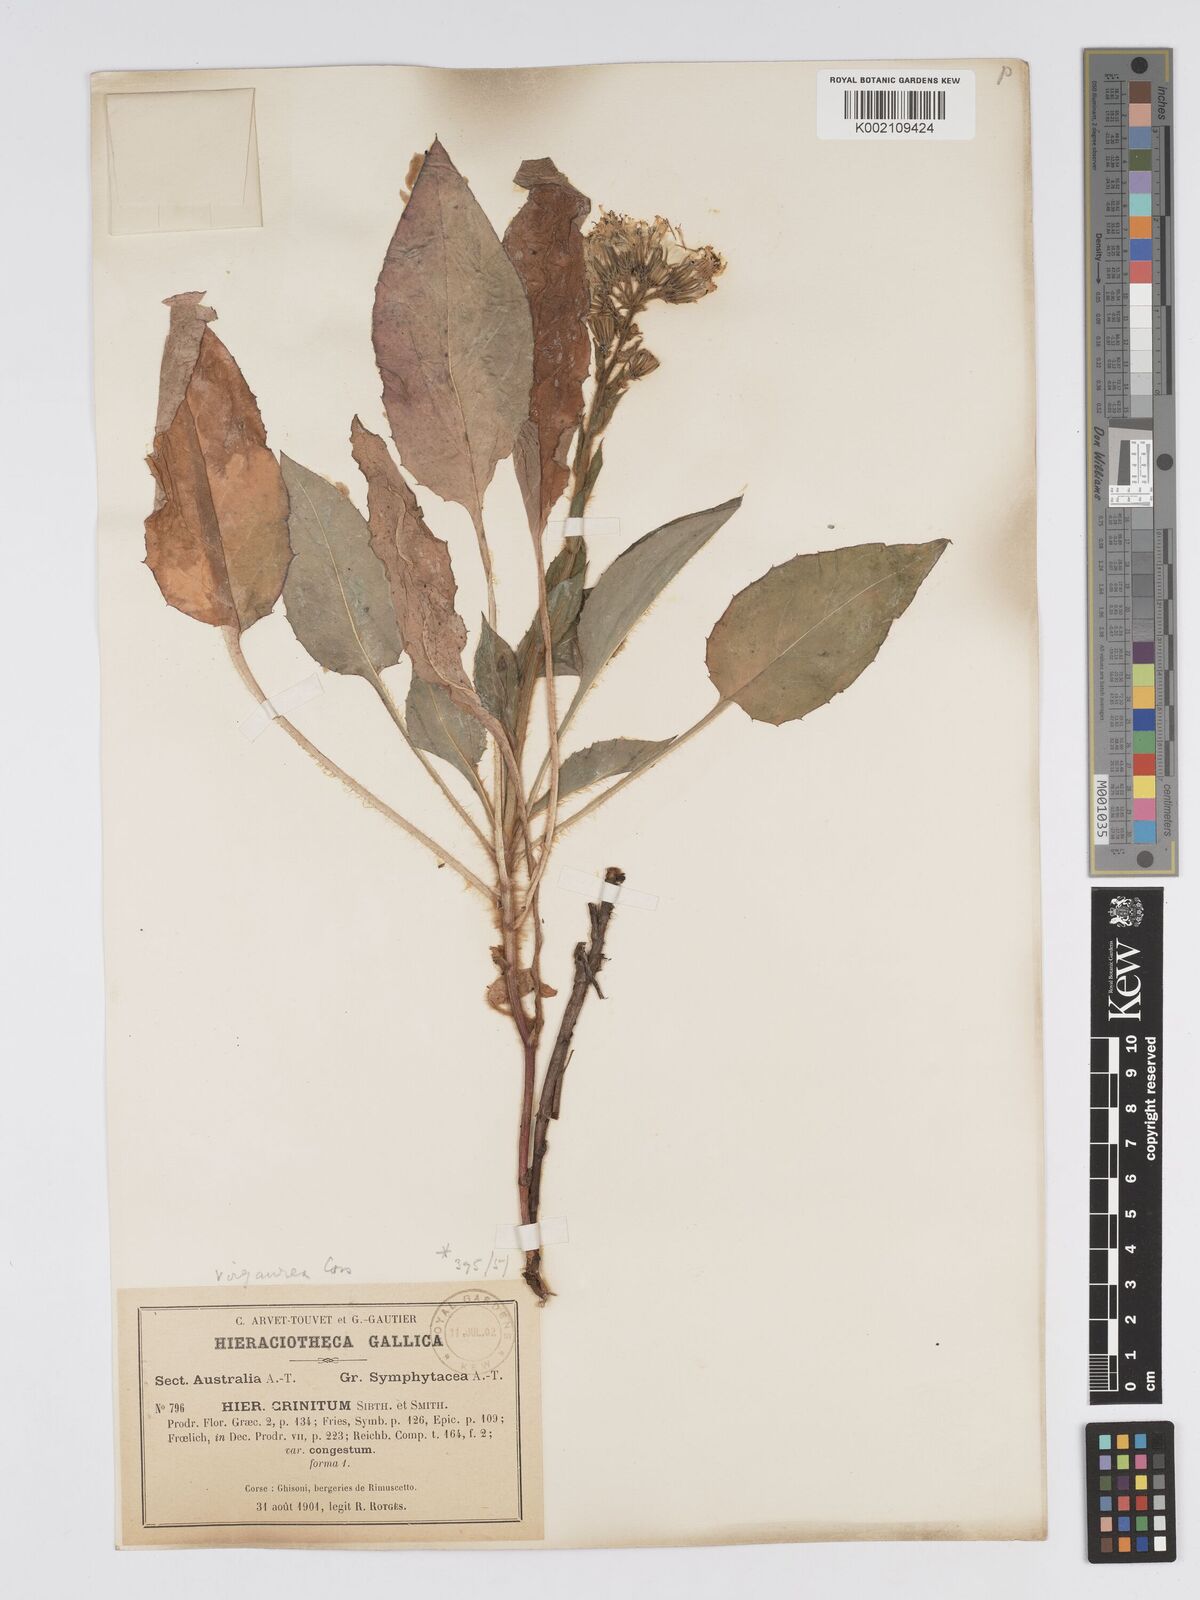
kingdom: Plantae
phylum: Tracheophyta
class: Magnoliopsida
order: Asterales
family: Asteraceae
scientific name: Asteraceae
